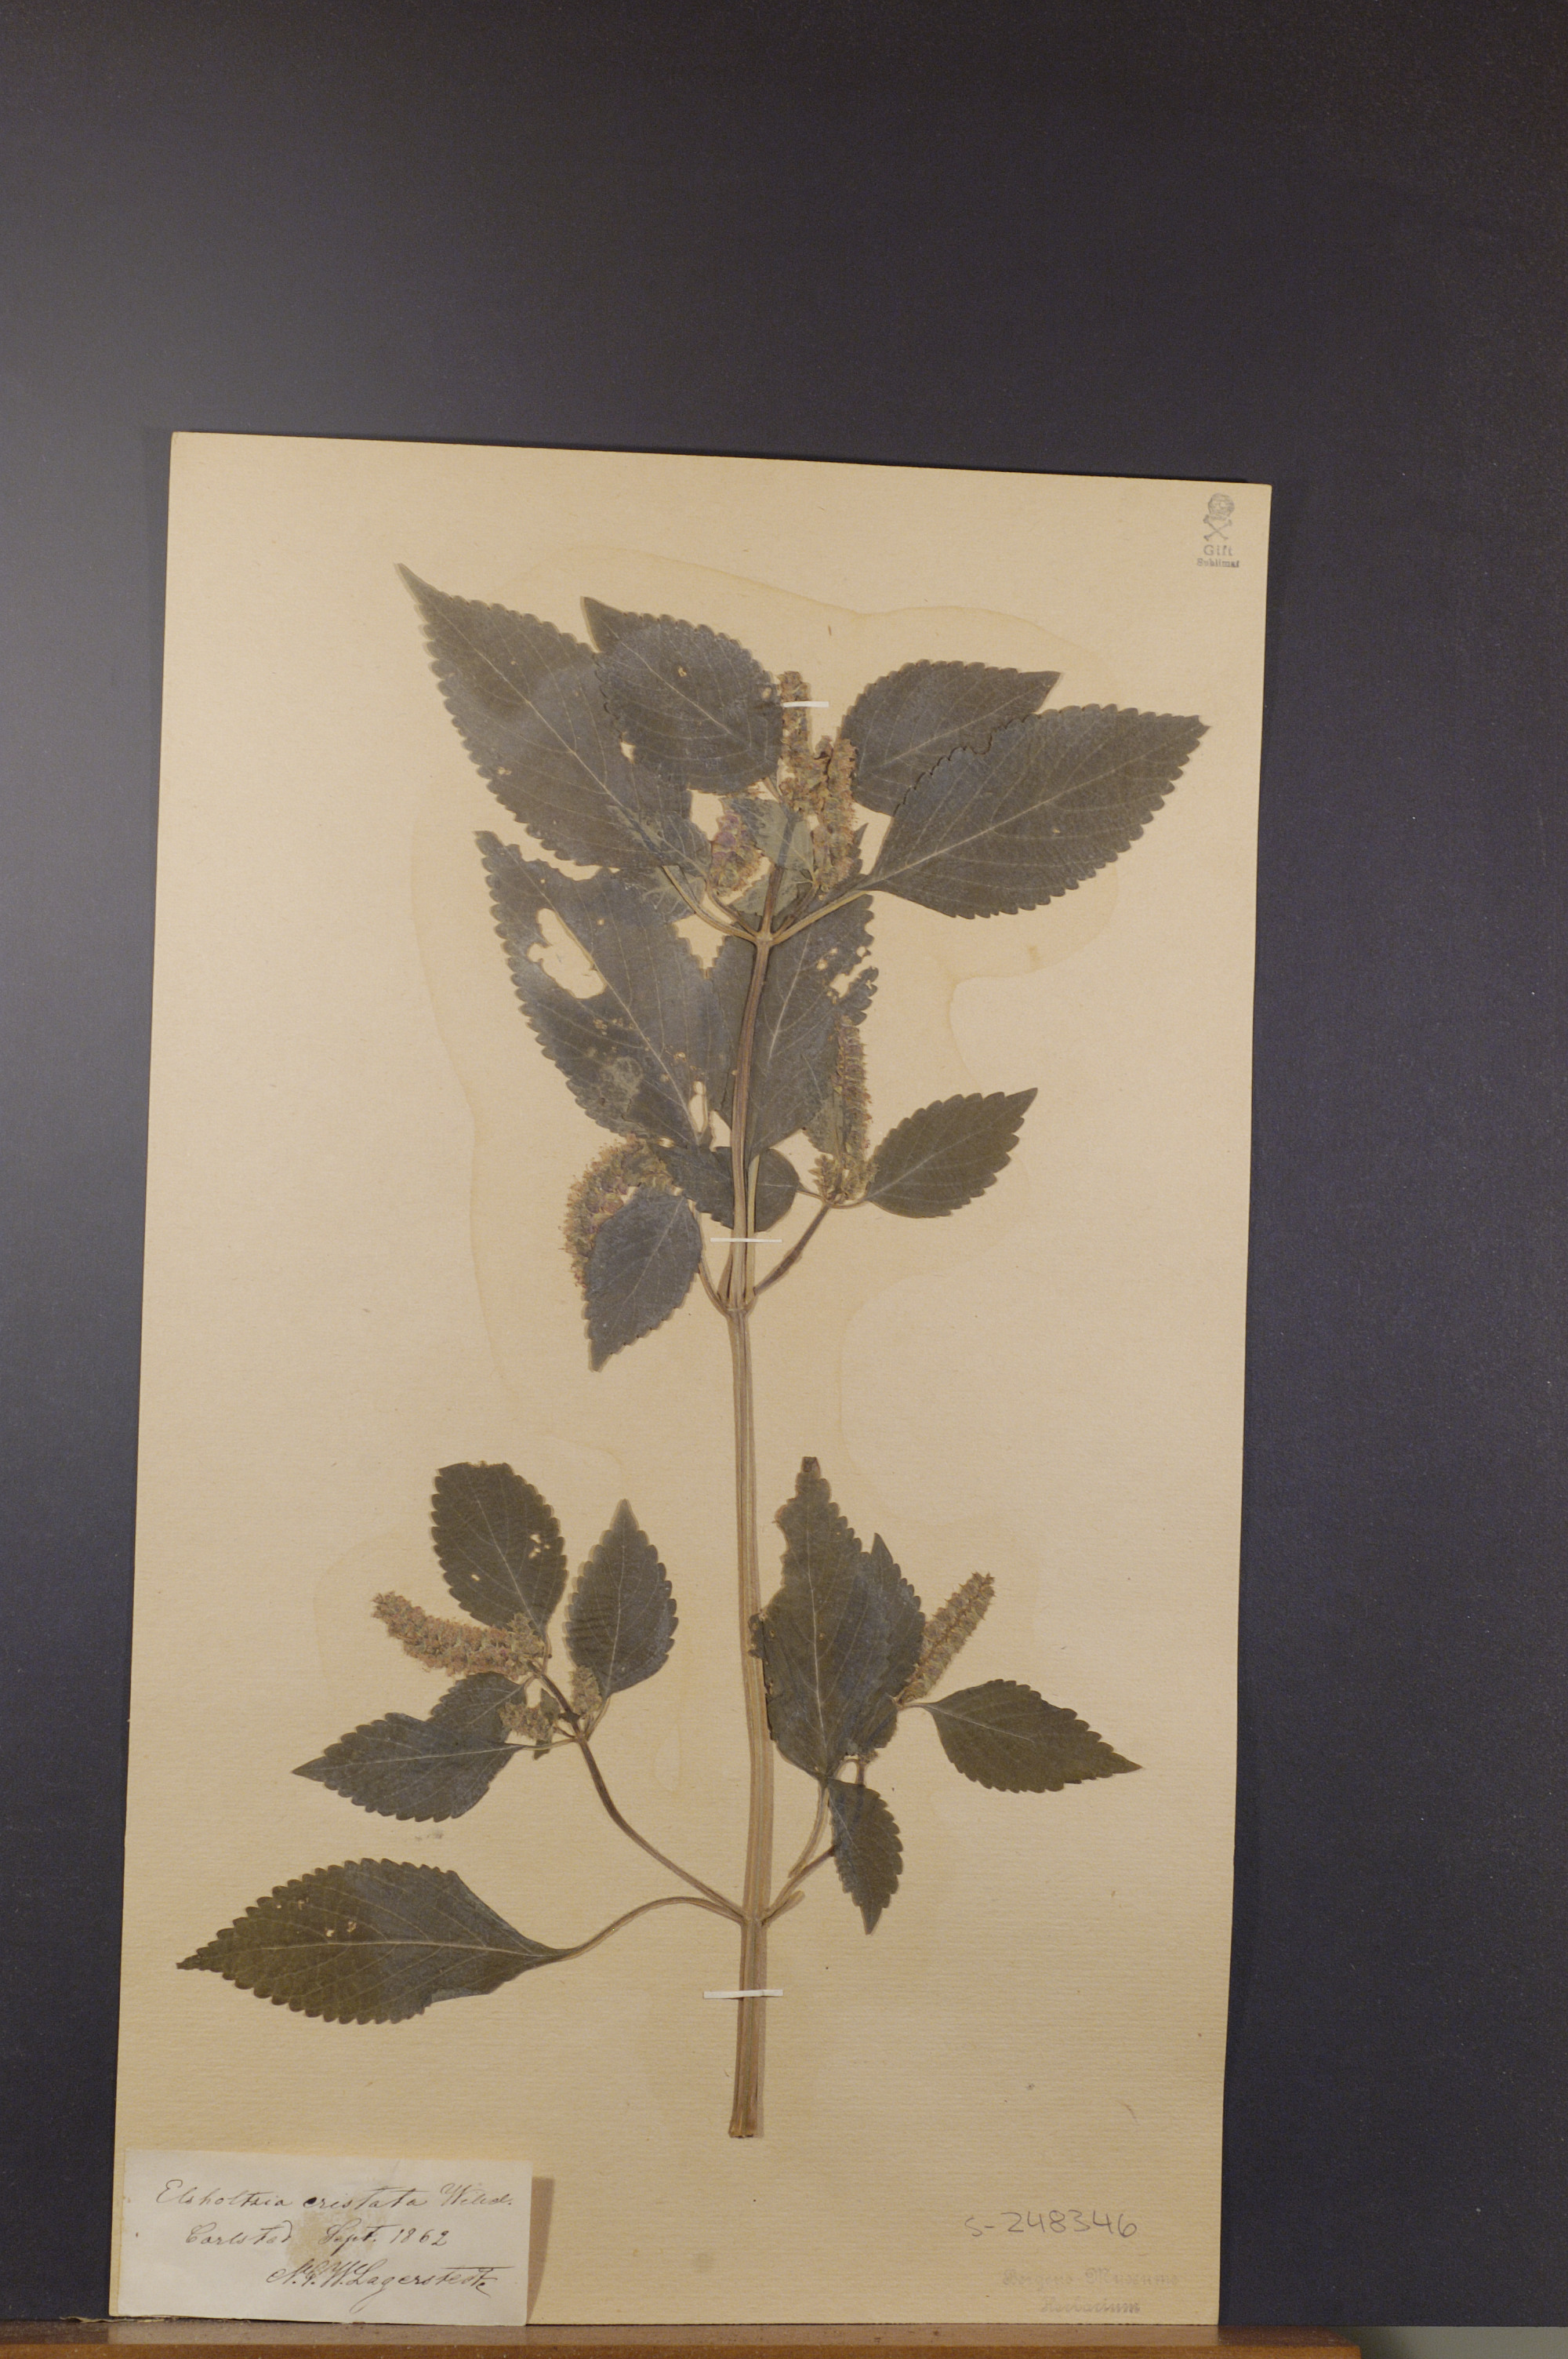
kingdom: Plantae
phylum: Tracheophyta
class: Magnoliopsida
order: Lamiales
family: Lamiaceae
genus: Elsholtzia
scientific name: Elsholtzia ciliata
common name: Ciliate elsholtzia
